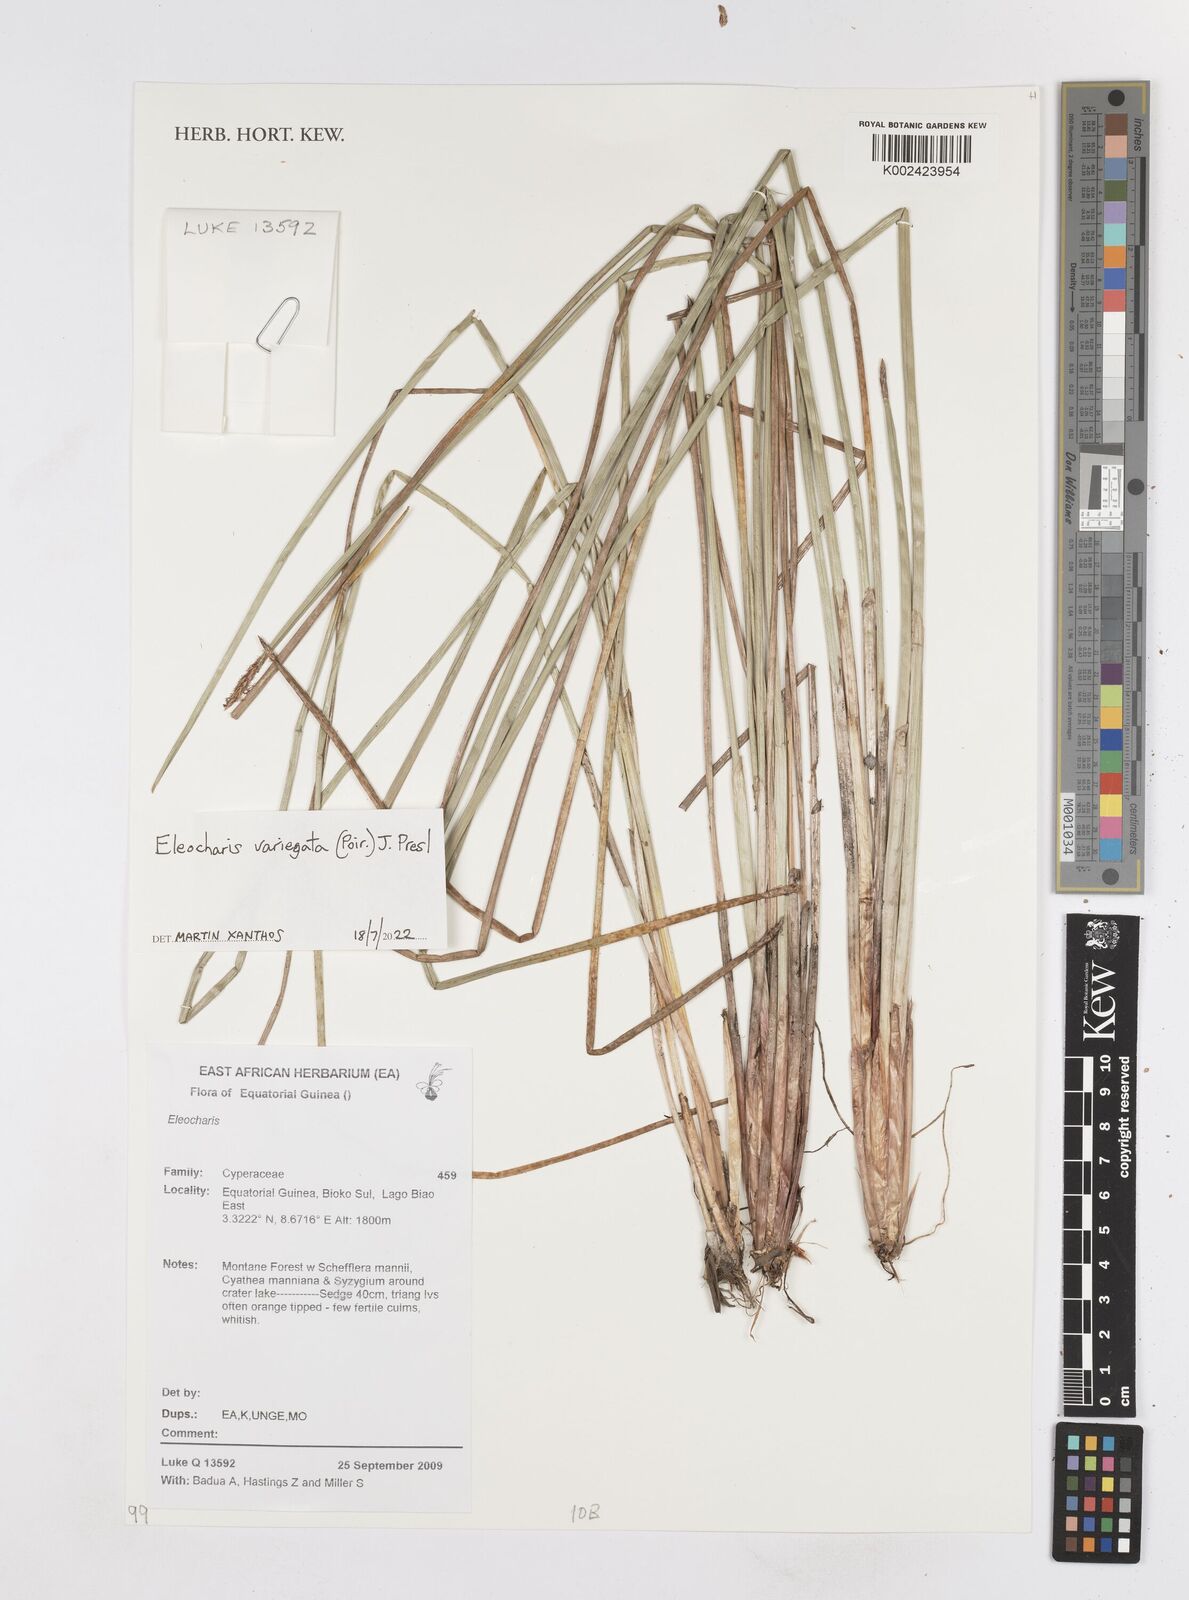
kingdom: Plantae
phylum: Tracheophyta
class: Liliopsida
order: Poales
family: Cyperaceae
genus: Eleocharis
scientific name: Eleocharis variegata
